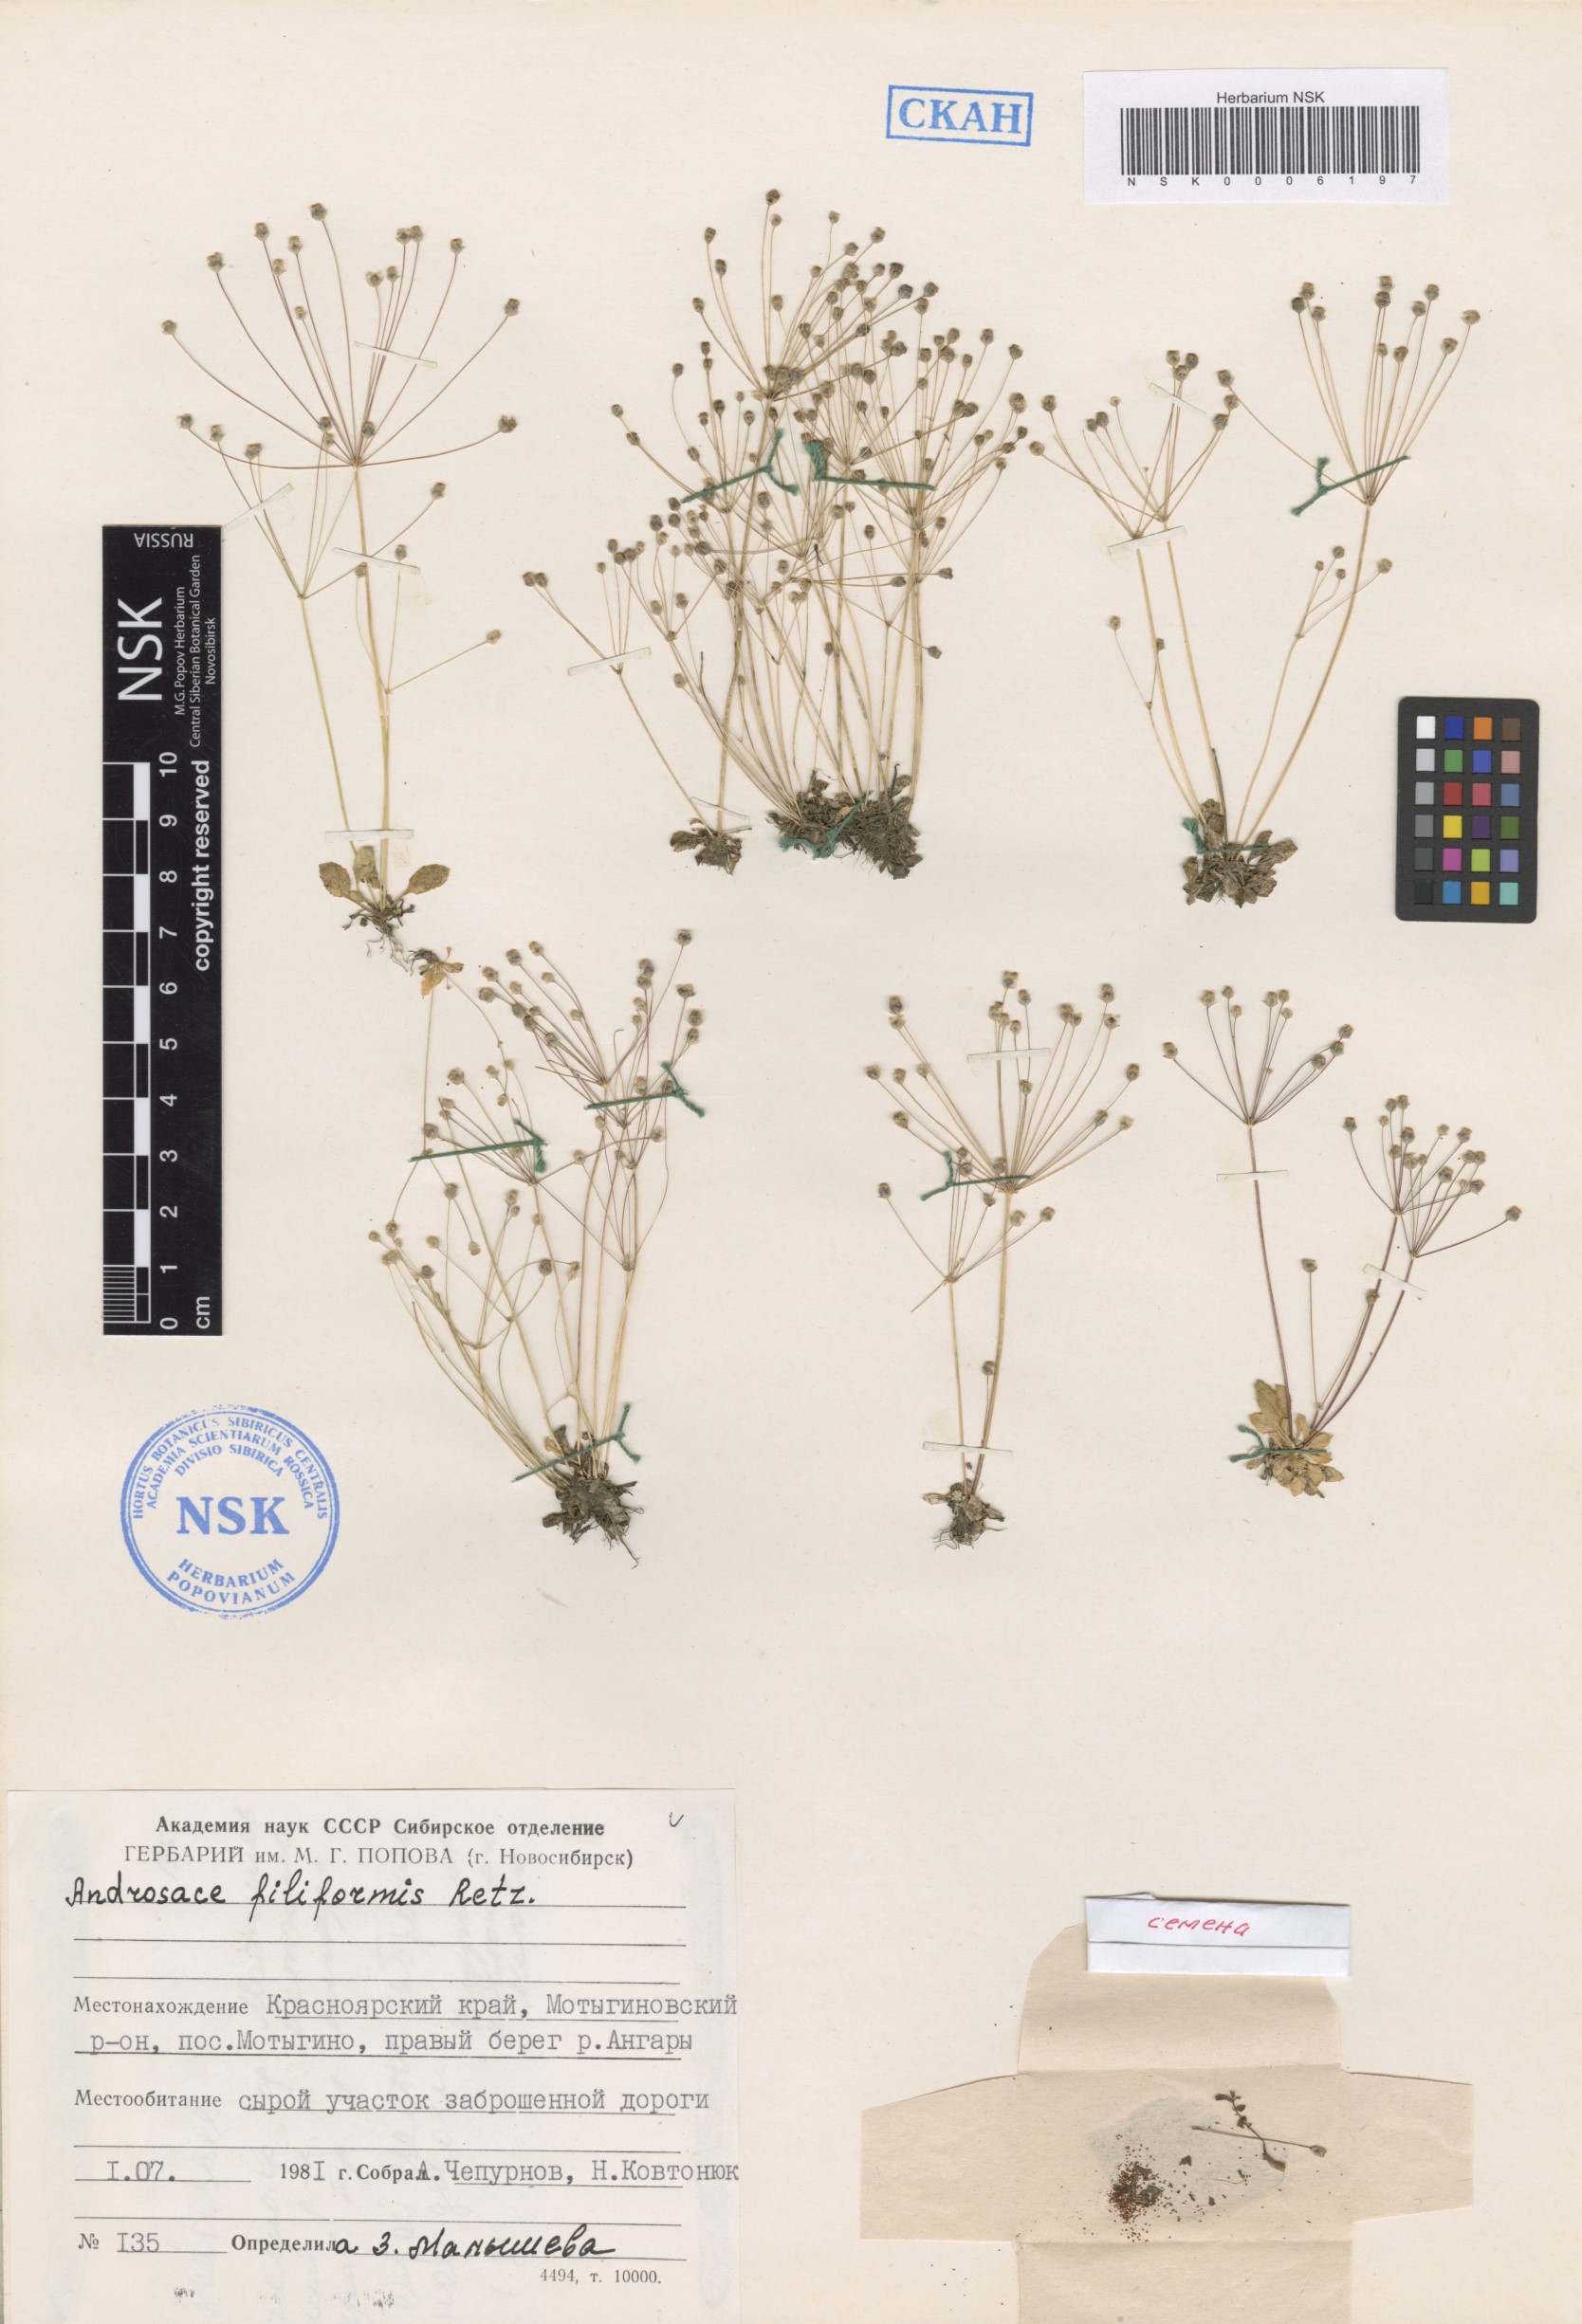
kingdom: Plantae
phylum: Tracheophyta
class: Magnoliopsida
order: Ericales
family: Primulaceae
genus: Androsace
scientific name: Androsace filiformis
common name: Filiform rock jasmine
